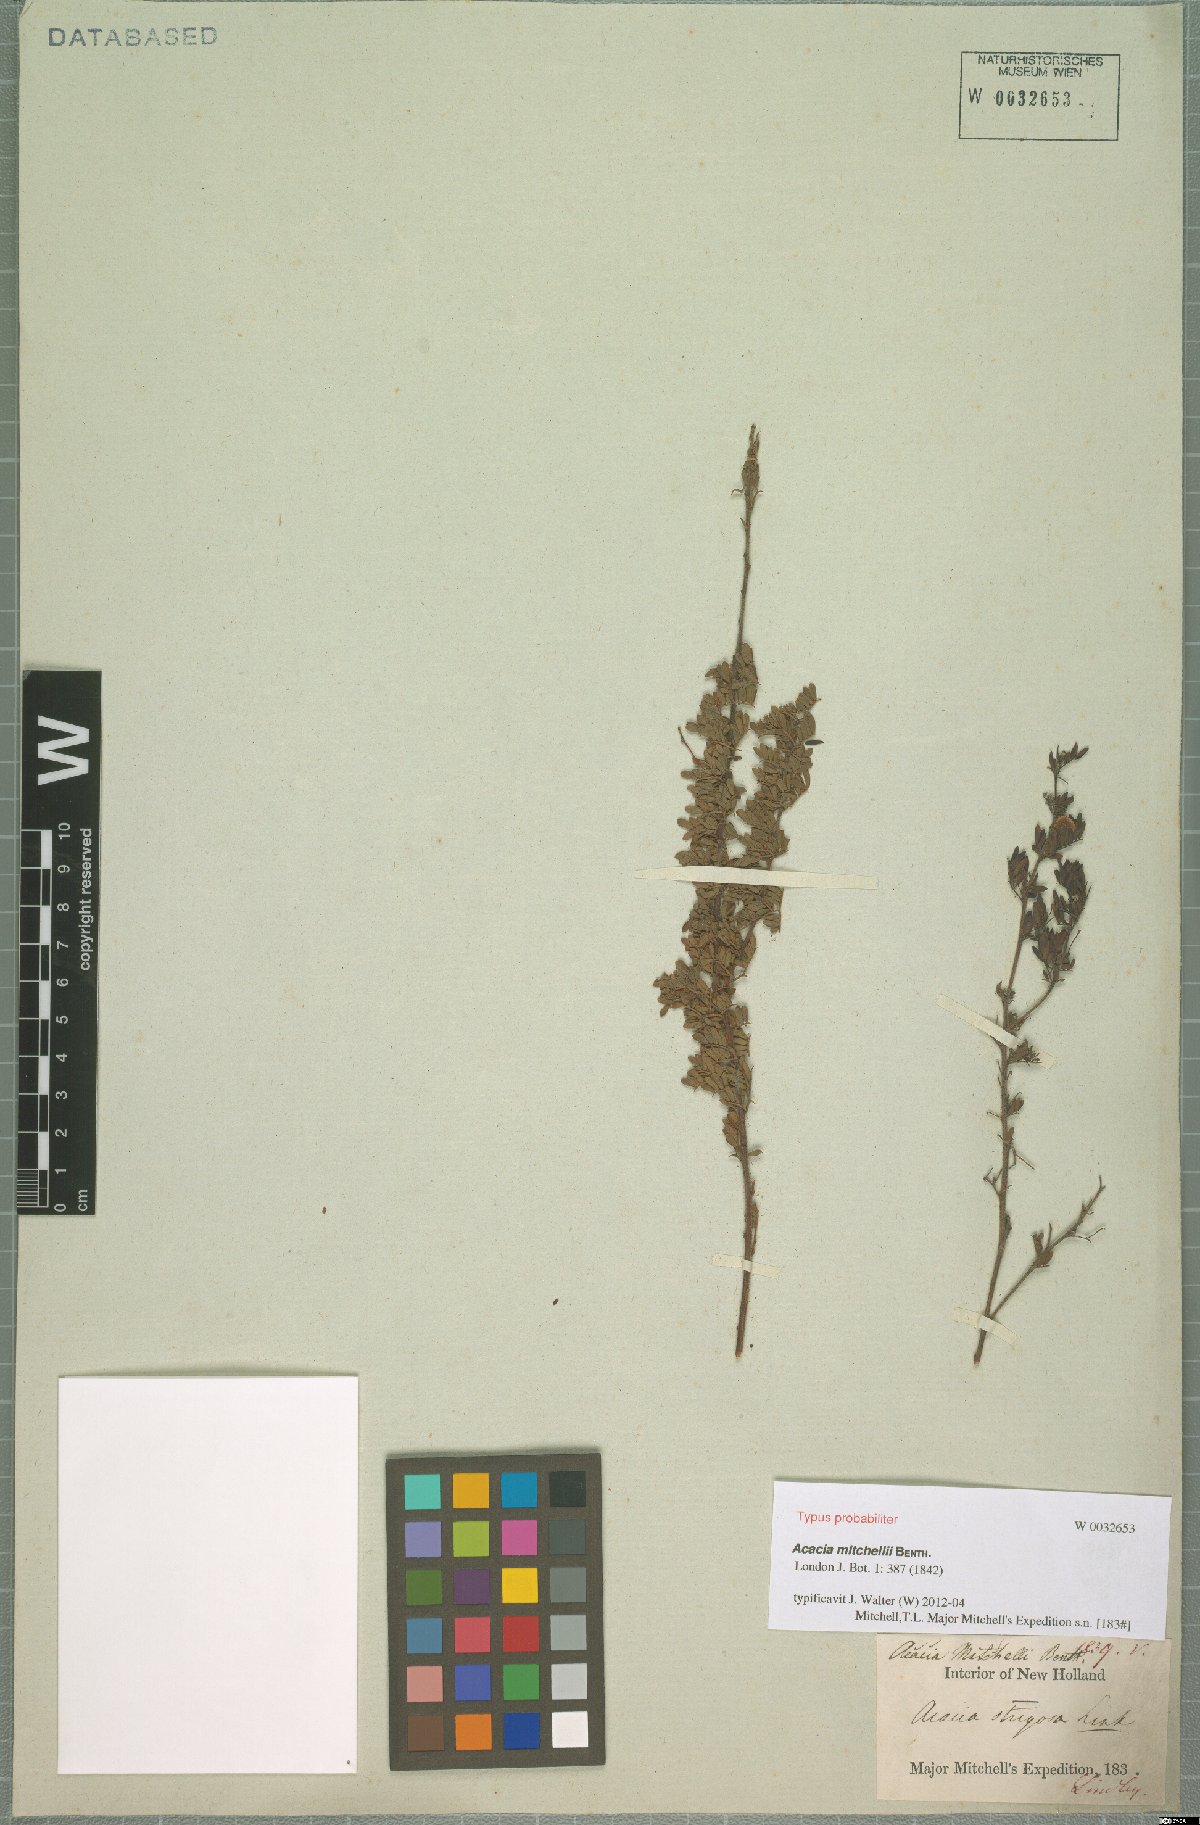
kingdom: Plantae
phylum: Tracheophyta
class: Magnoliopsida
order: Fabales
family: Fabaceae
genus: Acacia
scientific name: Acacia mitchellii
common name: Mitchell's wattle
